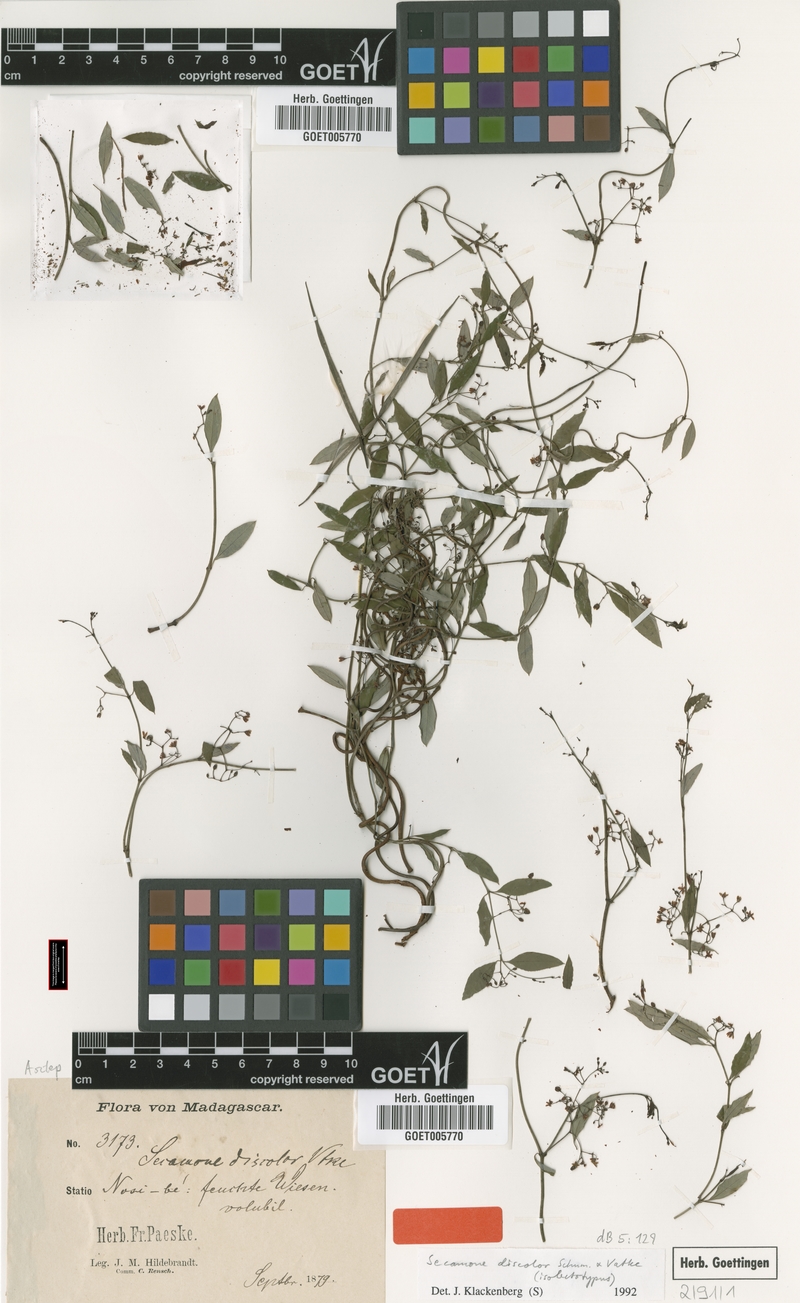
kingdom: Plantae
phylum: Tracheophyta
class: Magnoliopsida
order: Gentianales
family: Apocynaceae
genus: Secamone
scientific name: Secamone discolor
